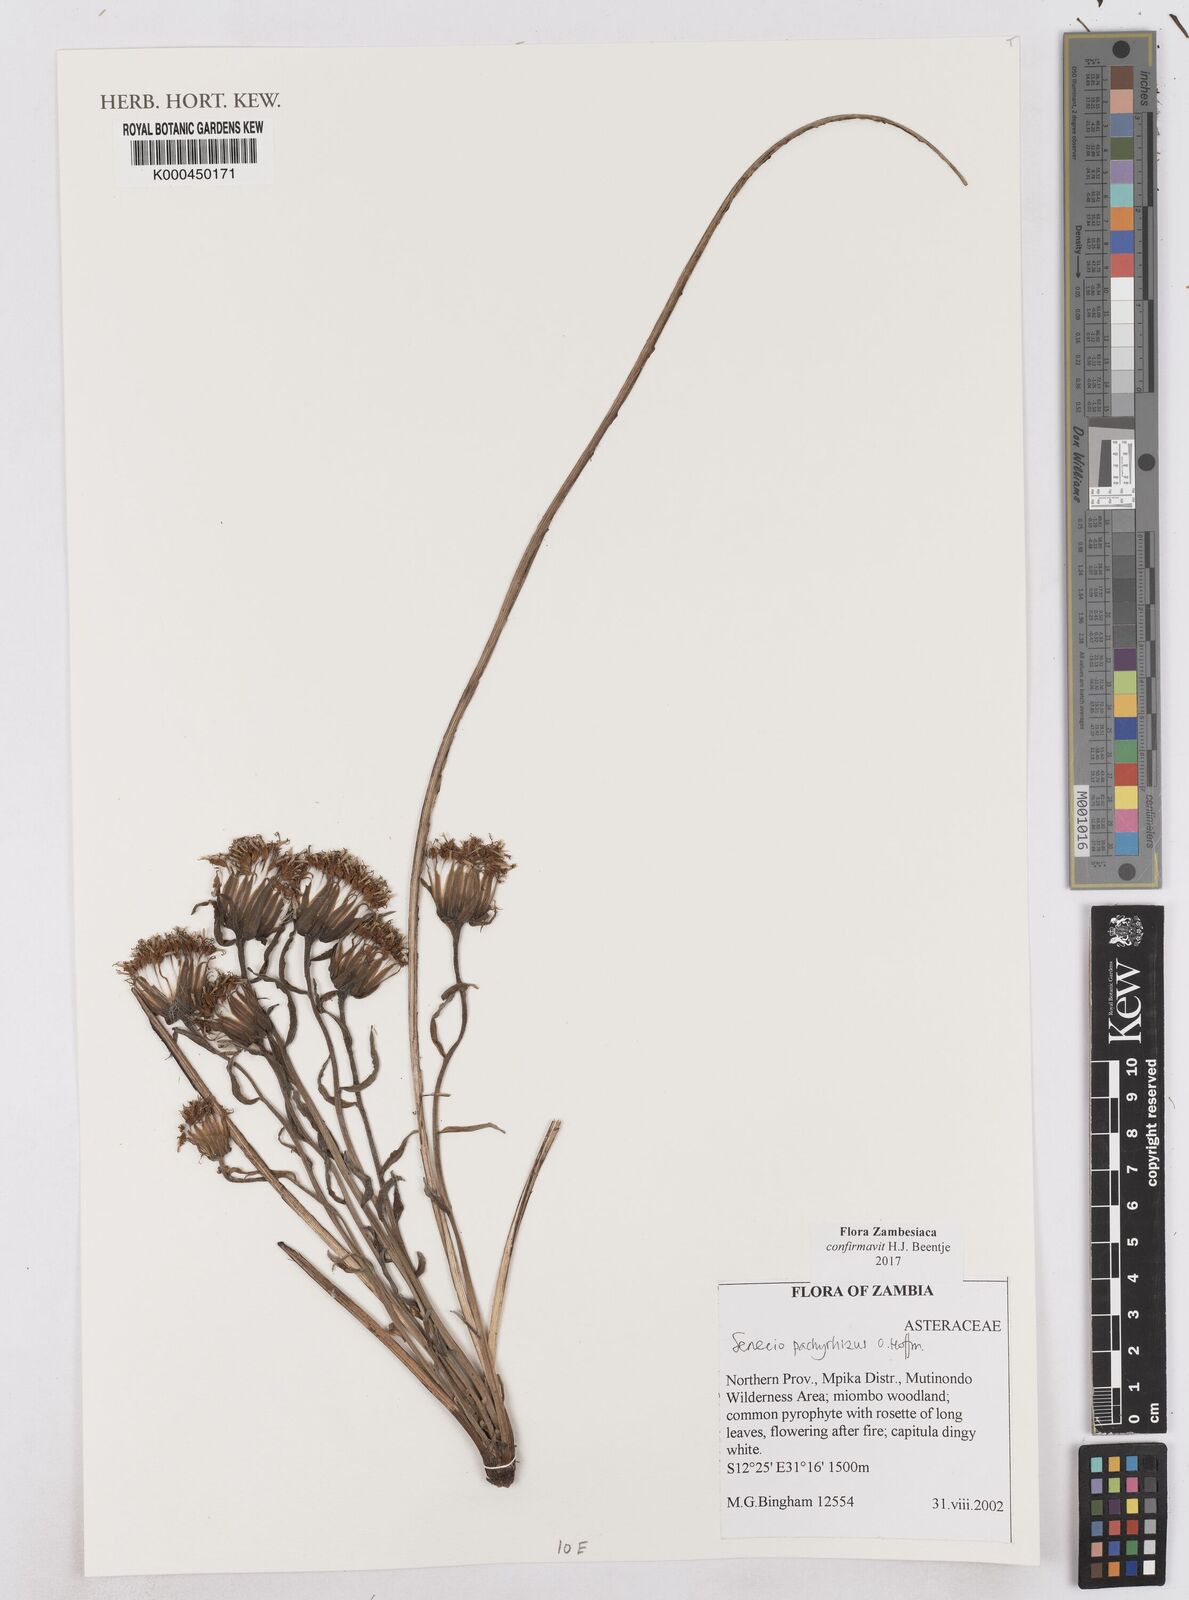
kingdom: Plantae
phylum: Tracheophyta
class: Magnoliopsida
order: Asterales
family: Asteraceae
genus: Senecio
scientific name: Senecio pachyrhizus
